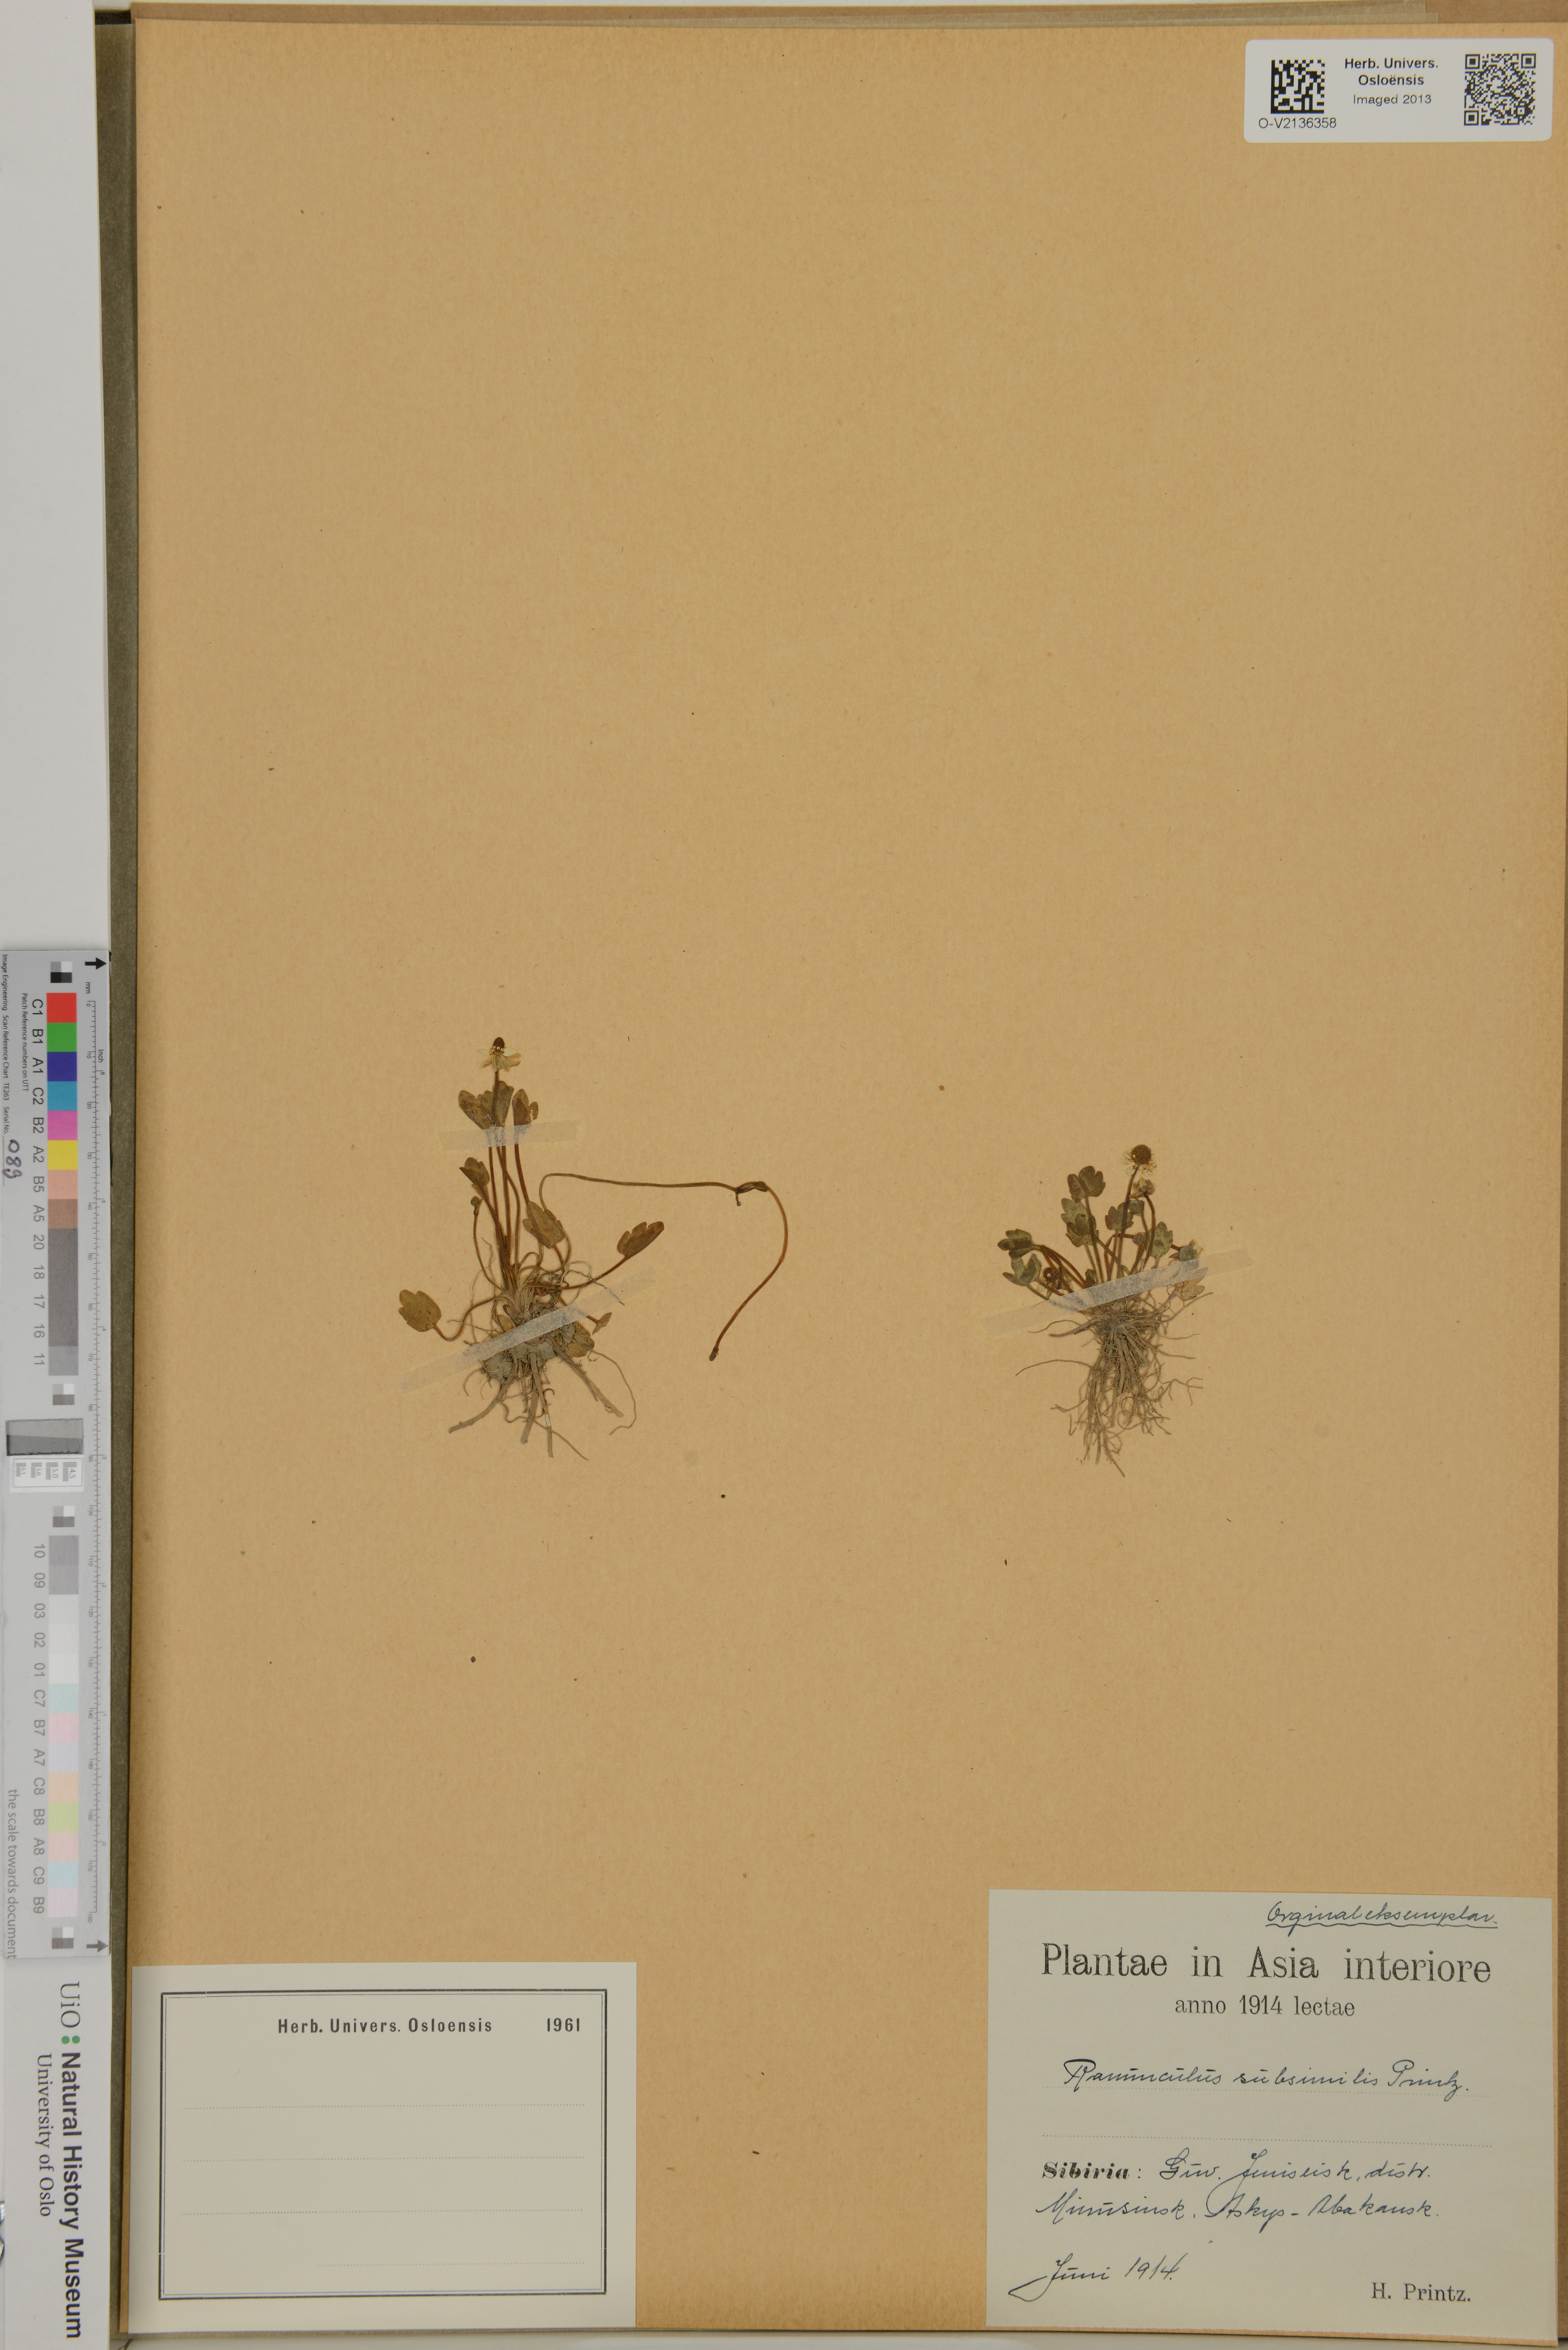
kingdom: Plantae
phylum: Tracheophyta
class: Magnoliopsida
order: Ranunculales
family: Ranunculaceae
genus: Halerpestes
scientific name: Halerpestes sarmentosus
